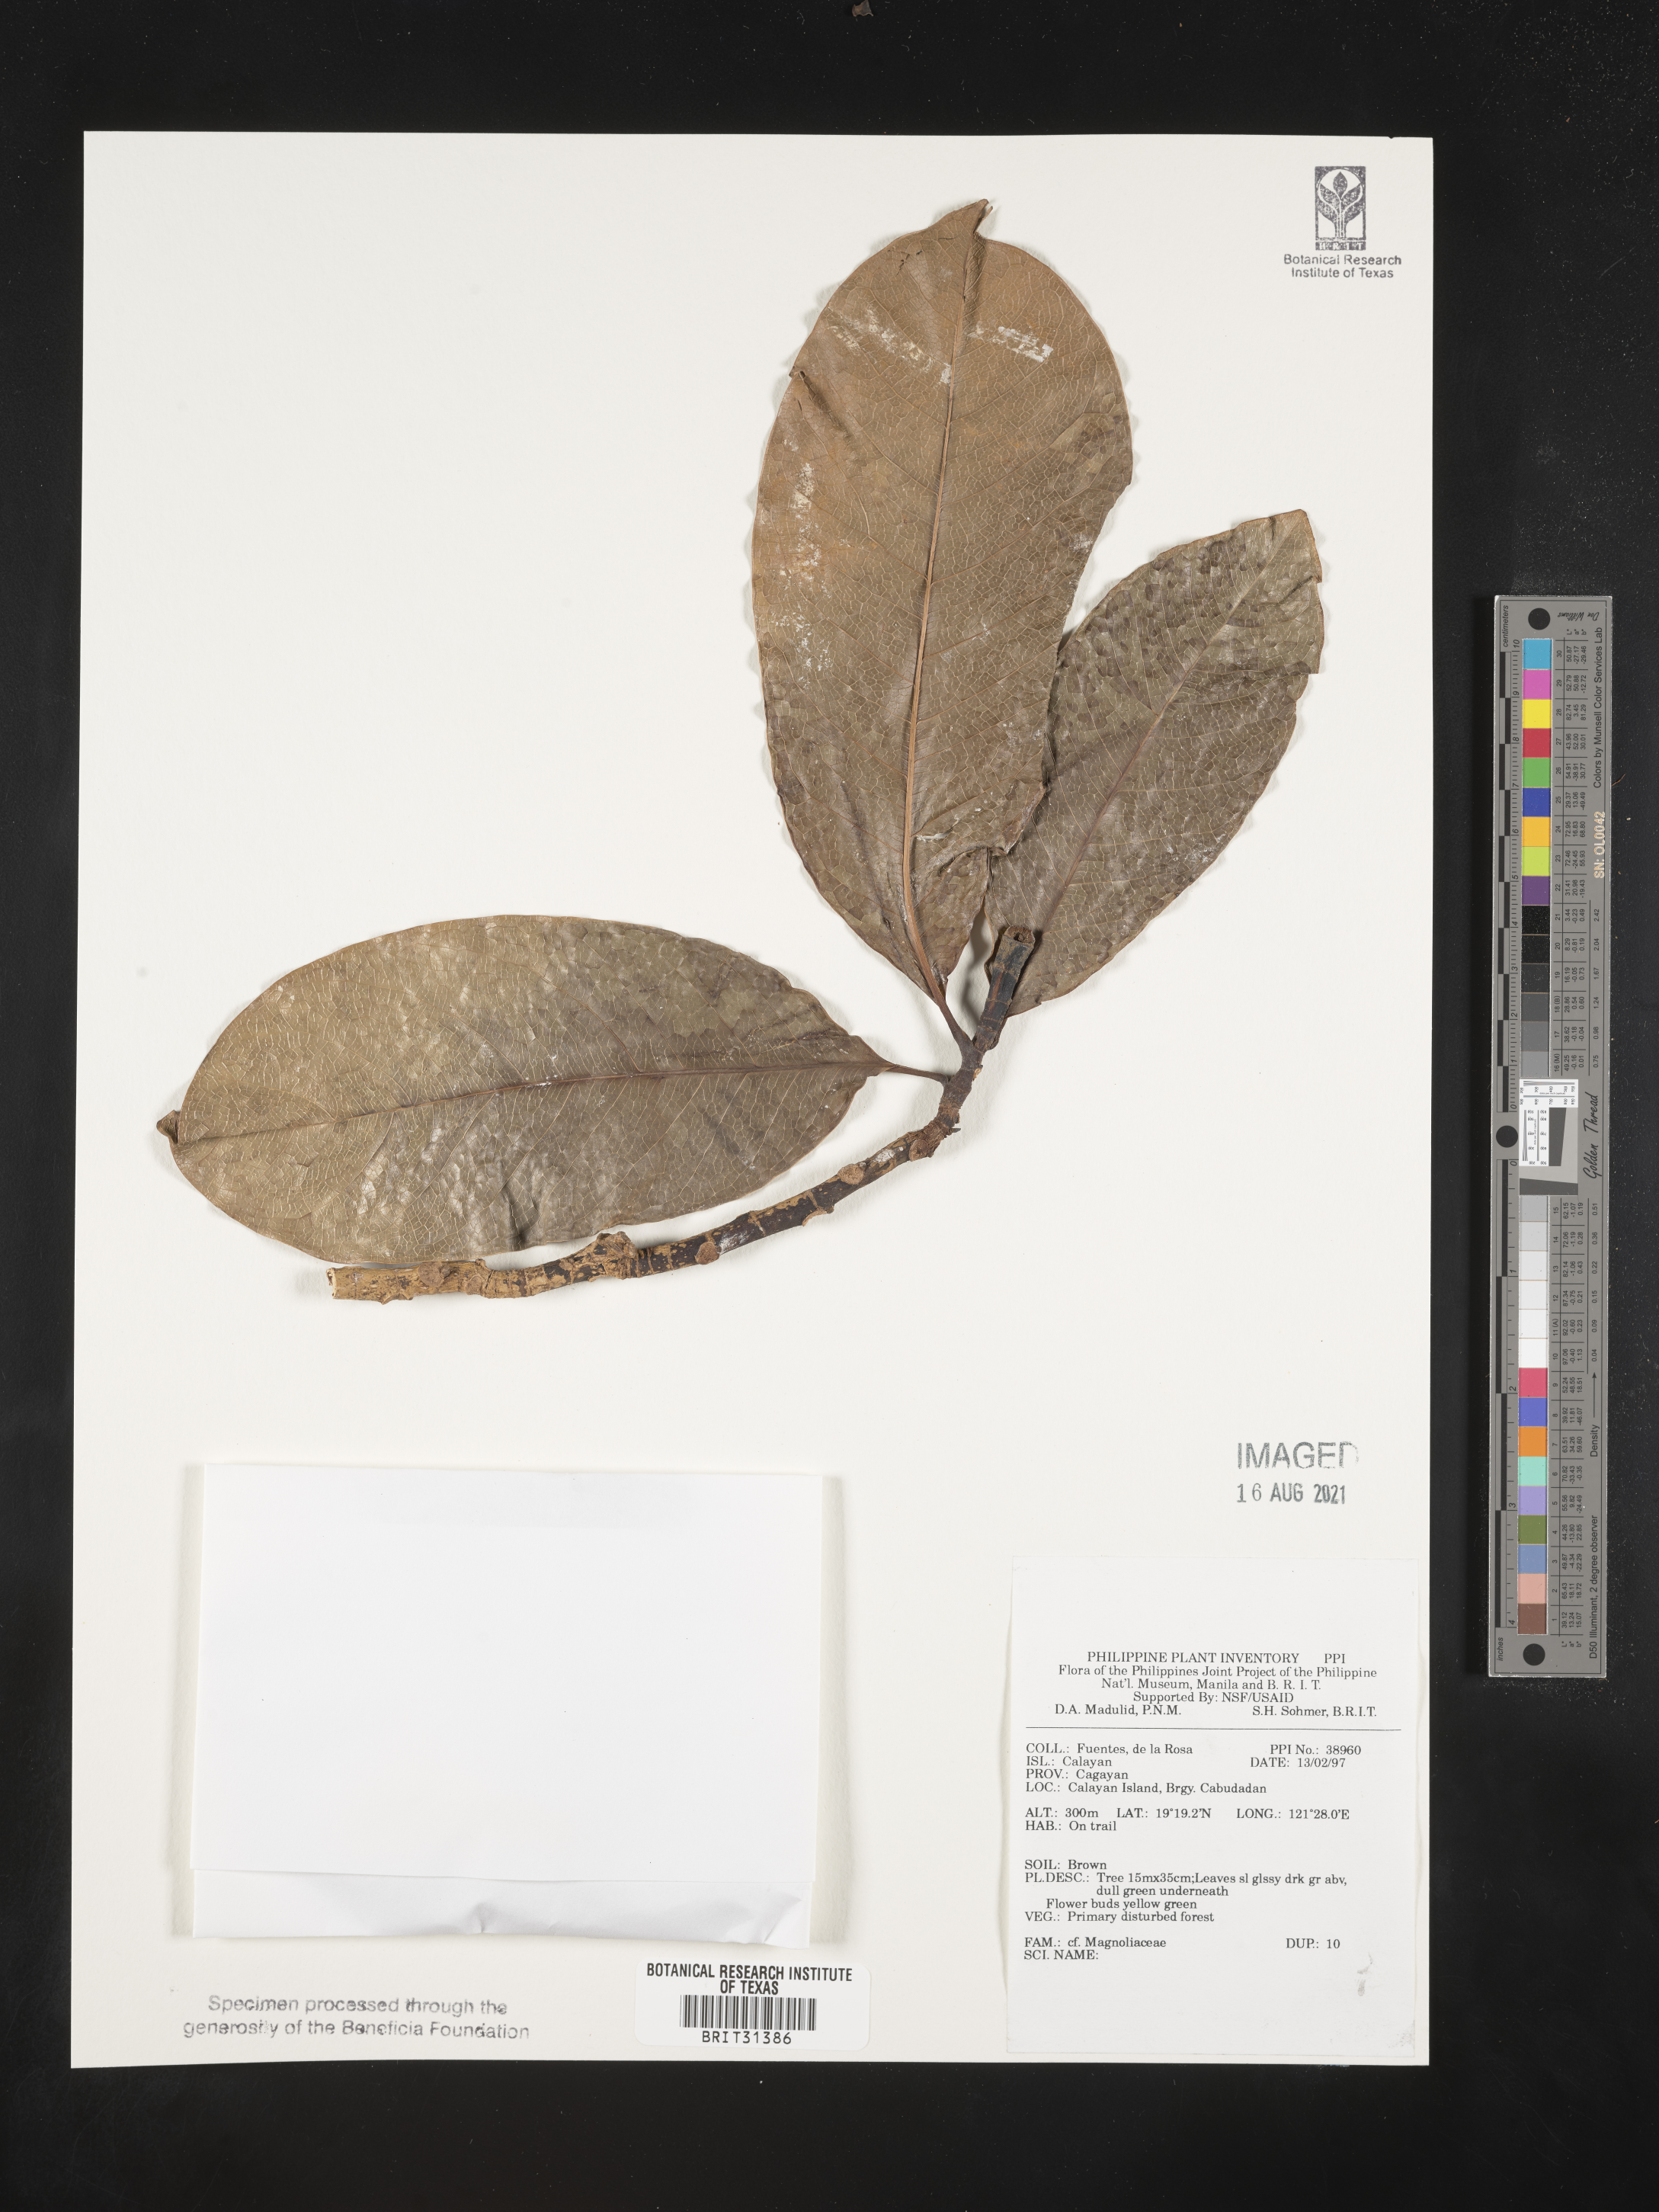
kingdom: Plantae
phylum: Tracheophyta
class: Magnoliopsida
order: Magnoliales
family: Magnoliaceae
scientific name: Magnoliaceae
